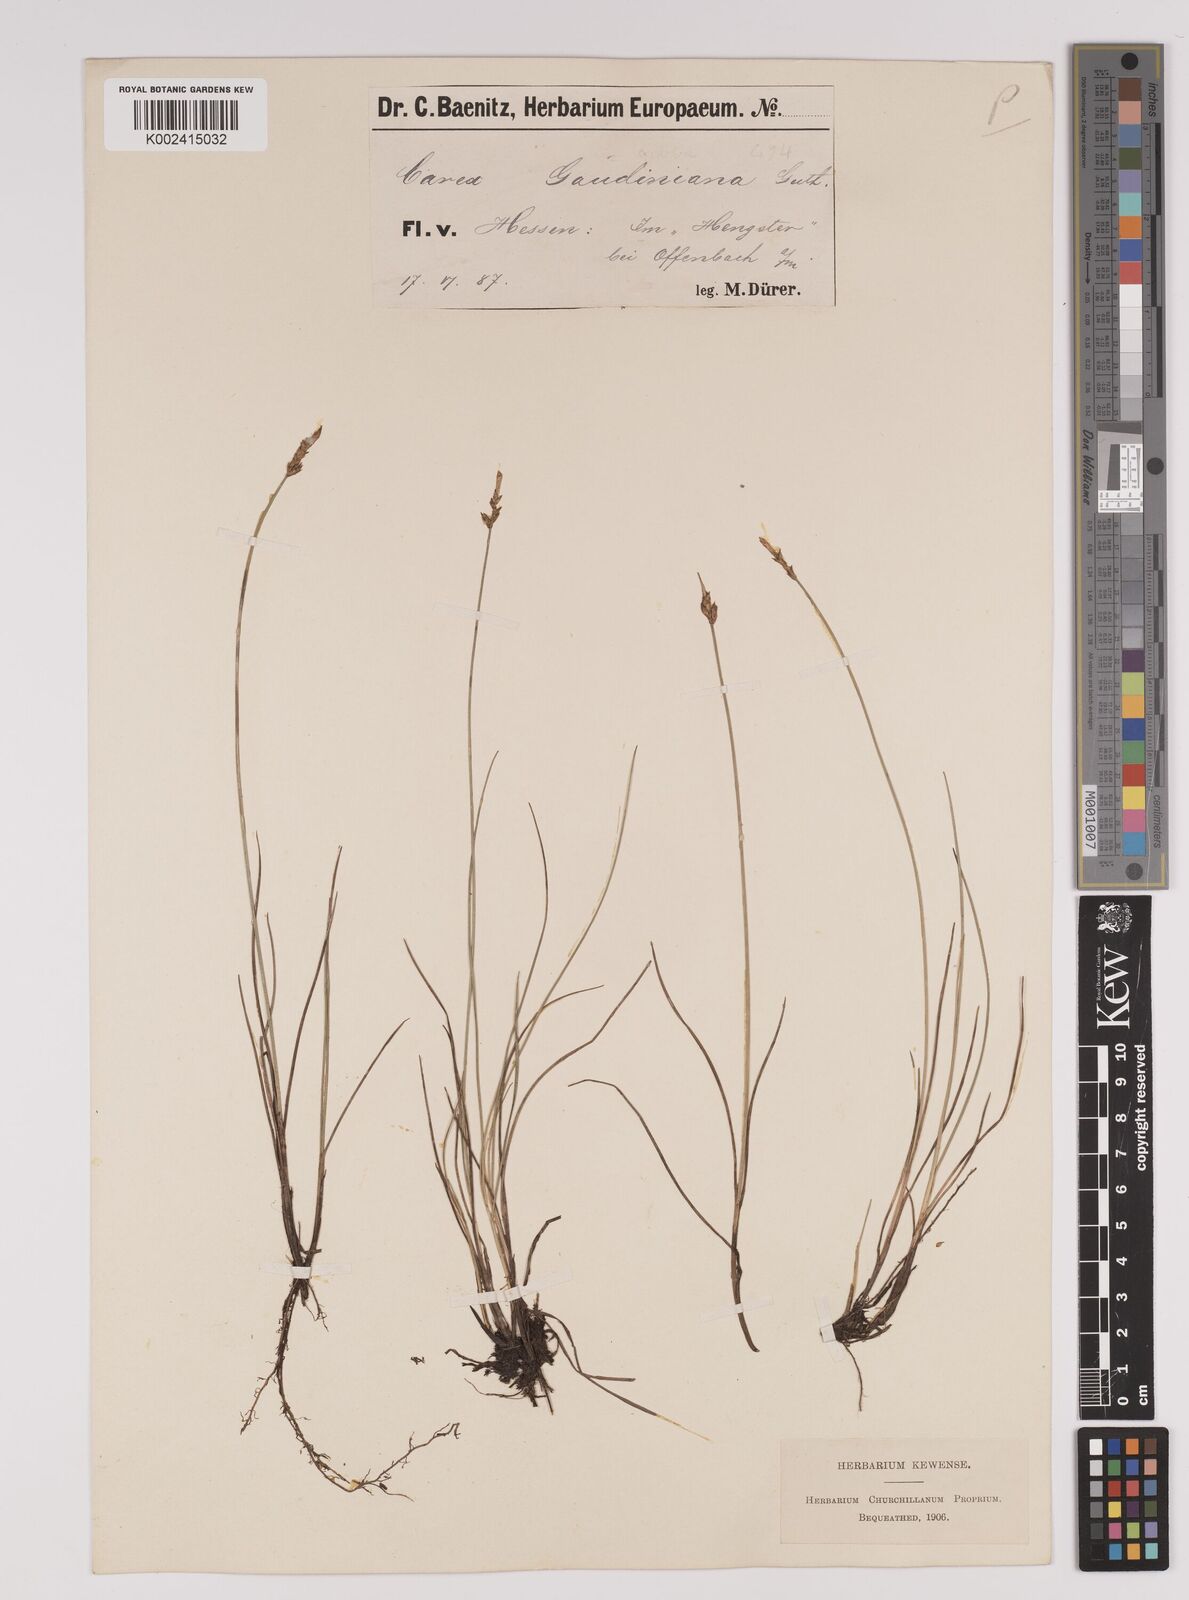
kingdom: Plantae
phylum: Tracheophyta
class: Liliopsida
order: Poales
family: Cyperaceae
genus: Carex
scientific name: Carex dioica
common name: Dioecious sedge
